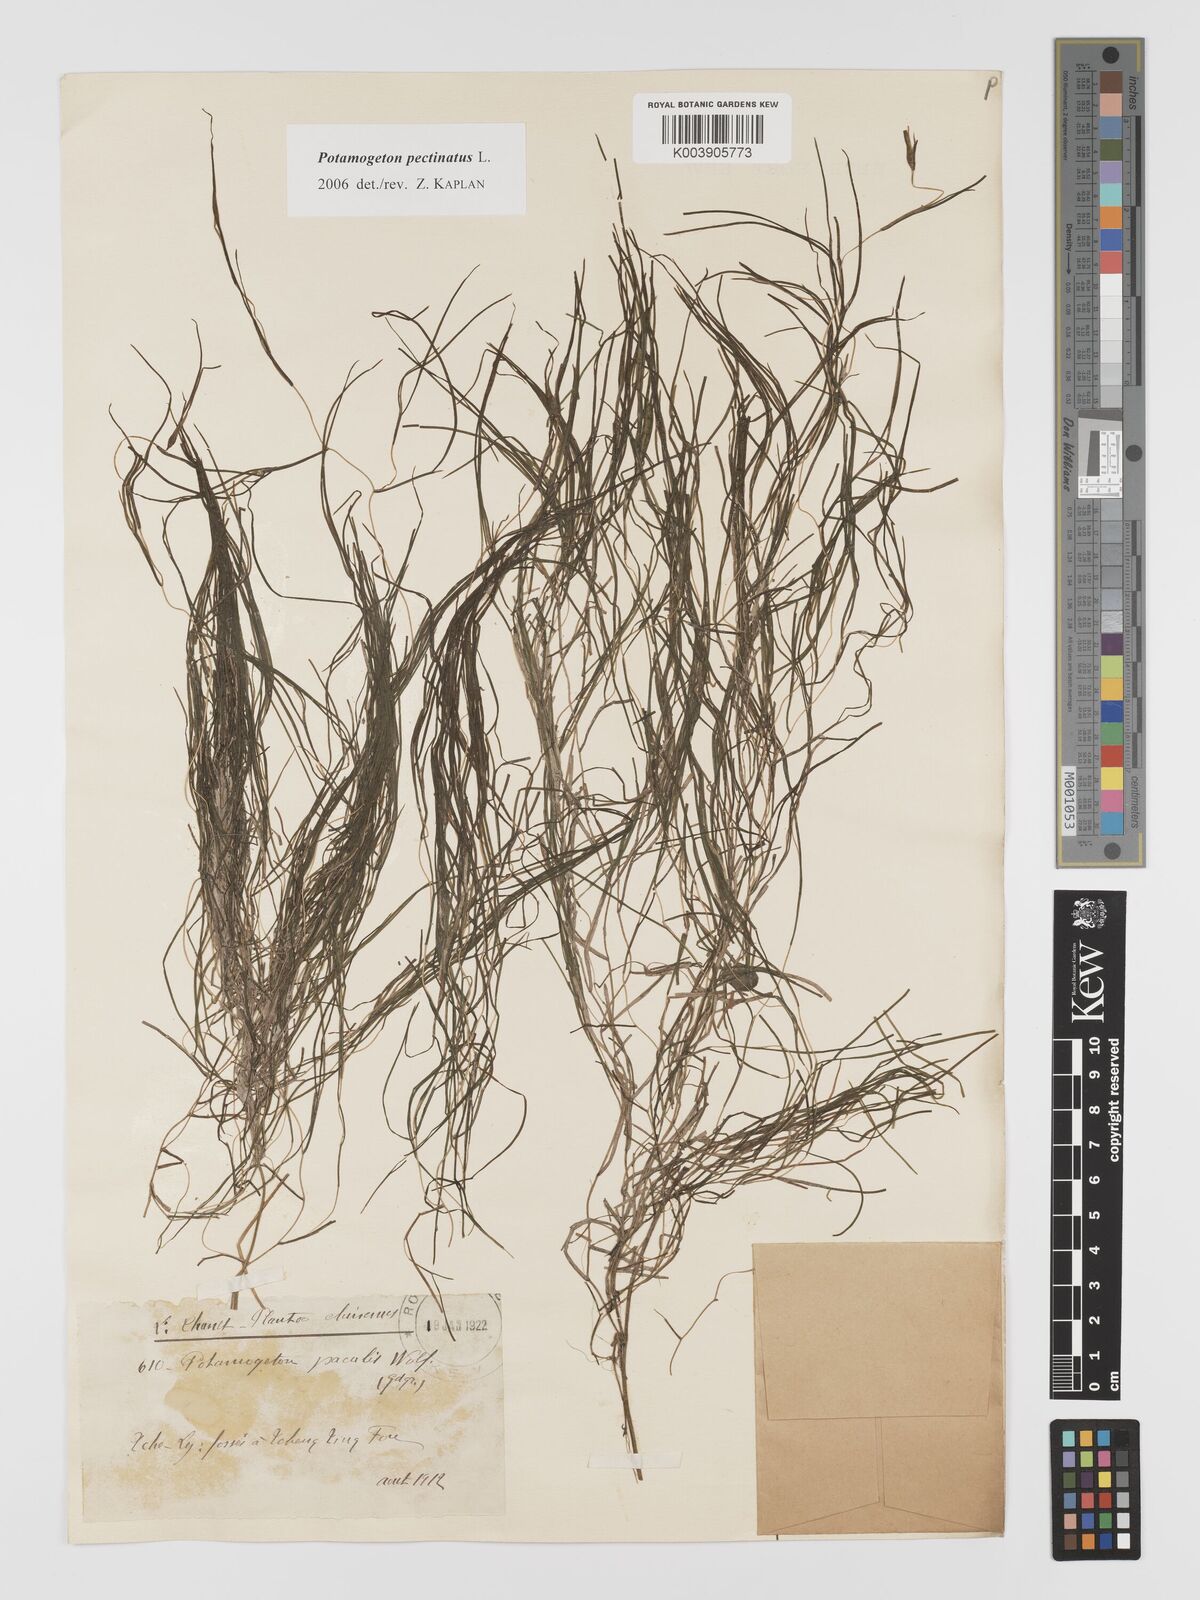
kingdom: Plantae
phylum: Tracheophyta
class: Liliopsida
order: Alismatales
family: Potamogetonaceae
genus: Stuckenia
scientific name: Stuckenia pectinata
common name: Sago pondweed
